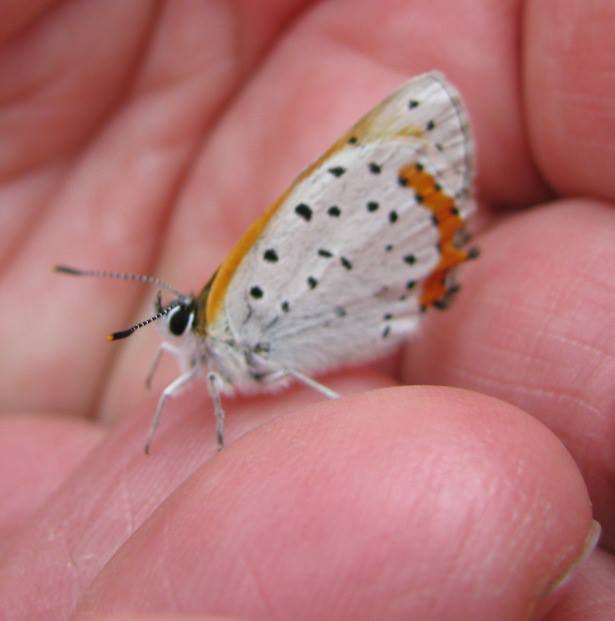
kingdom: Animalia
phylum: Arthropoda
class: Insecta
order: Lepidoptera
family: Sesiidae
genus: Sesia
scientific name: Sesia Lycaena hyllus
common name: Bronze Copper
